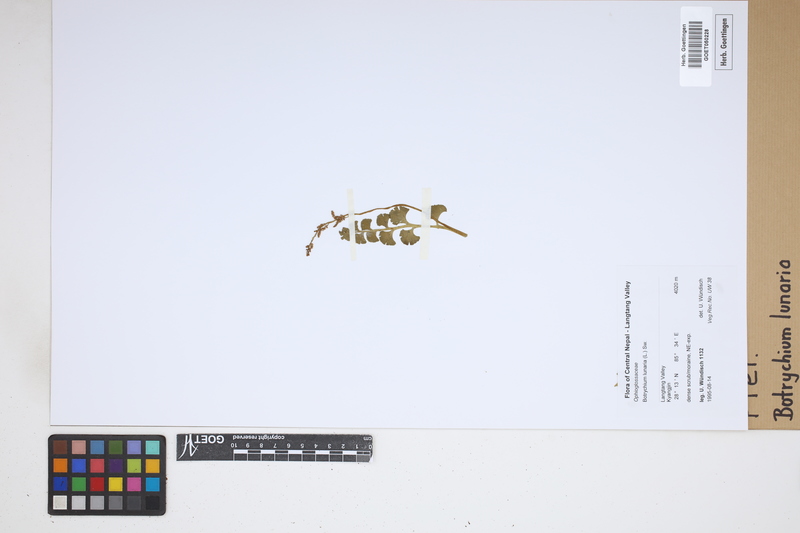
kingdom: Plantae
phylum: Tracheophyta
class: Polypodiopsida
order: Ophioglossales
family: Ophioglossaceae
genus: Botrychium
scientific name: Botrychium lunaria
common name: Moonwort
